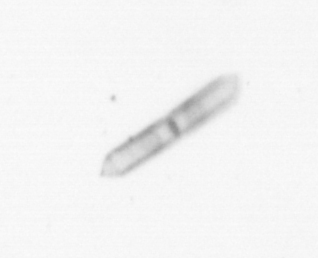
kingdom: Chromista
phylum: Ochrophyta
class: Bacillariophyceae
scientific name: Bacillariophyceae
